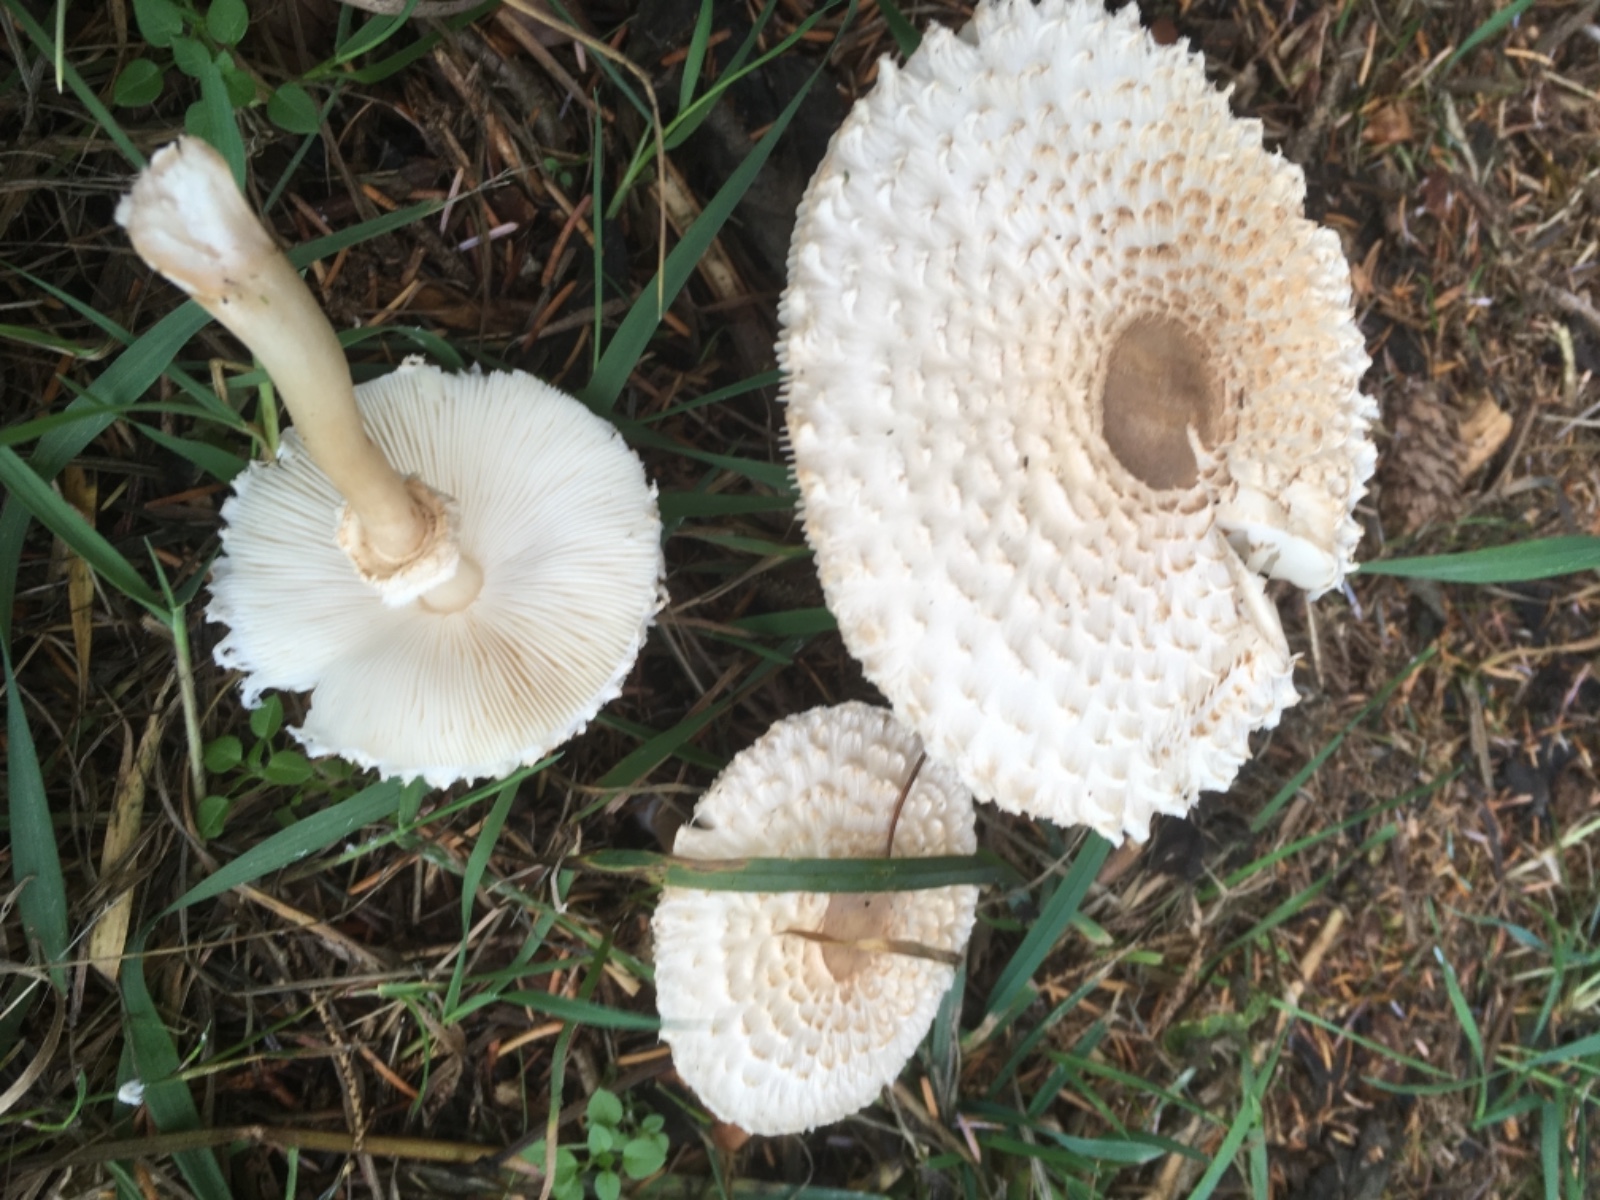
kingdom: Fungi
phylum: Basidiomycota
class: Agaricomycetes
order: Agaricales
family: Agaricaceae
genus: Leucoagaricus
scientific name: Leucoagaricus nympharum
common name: gran-silkehat
